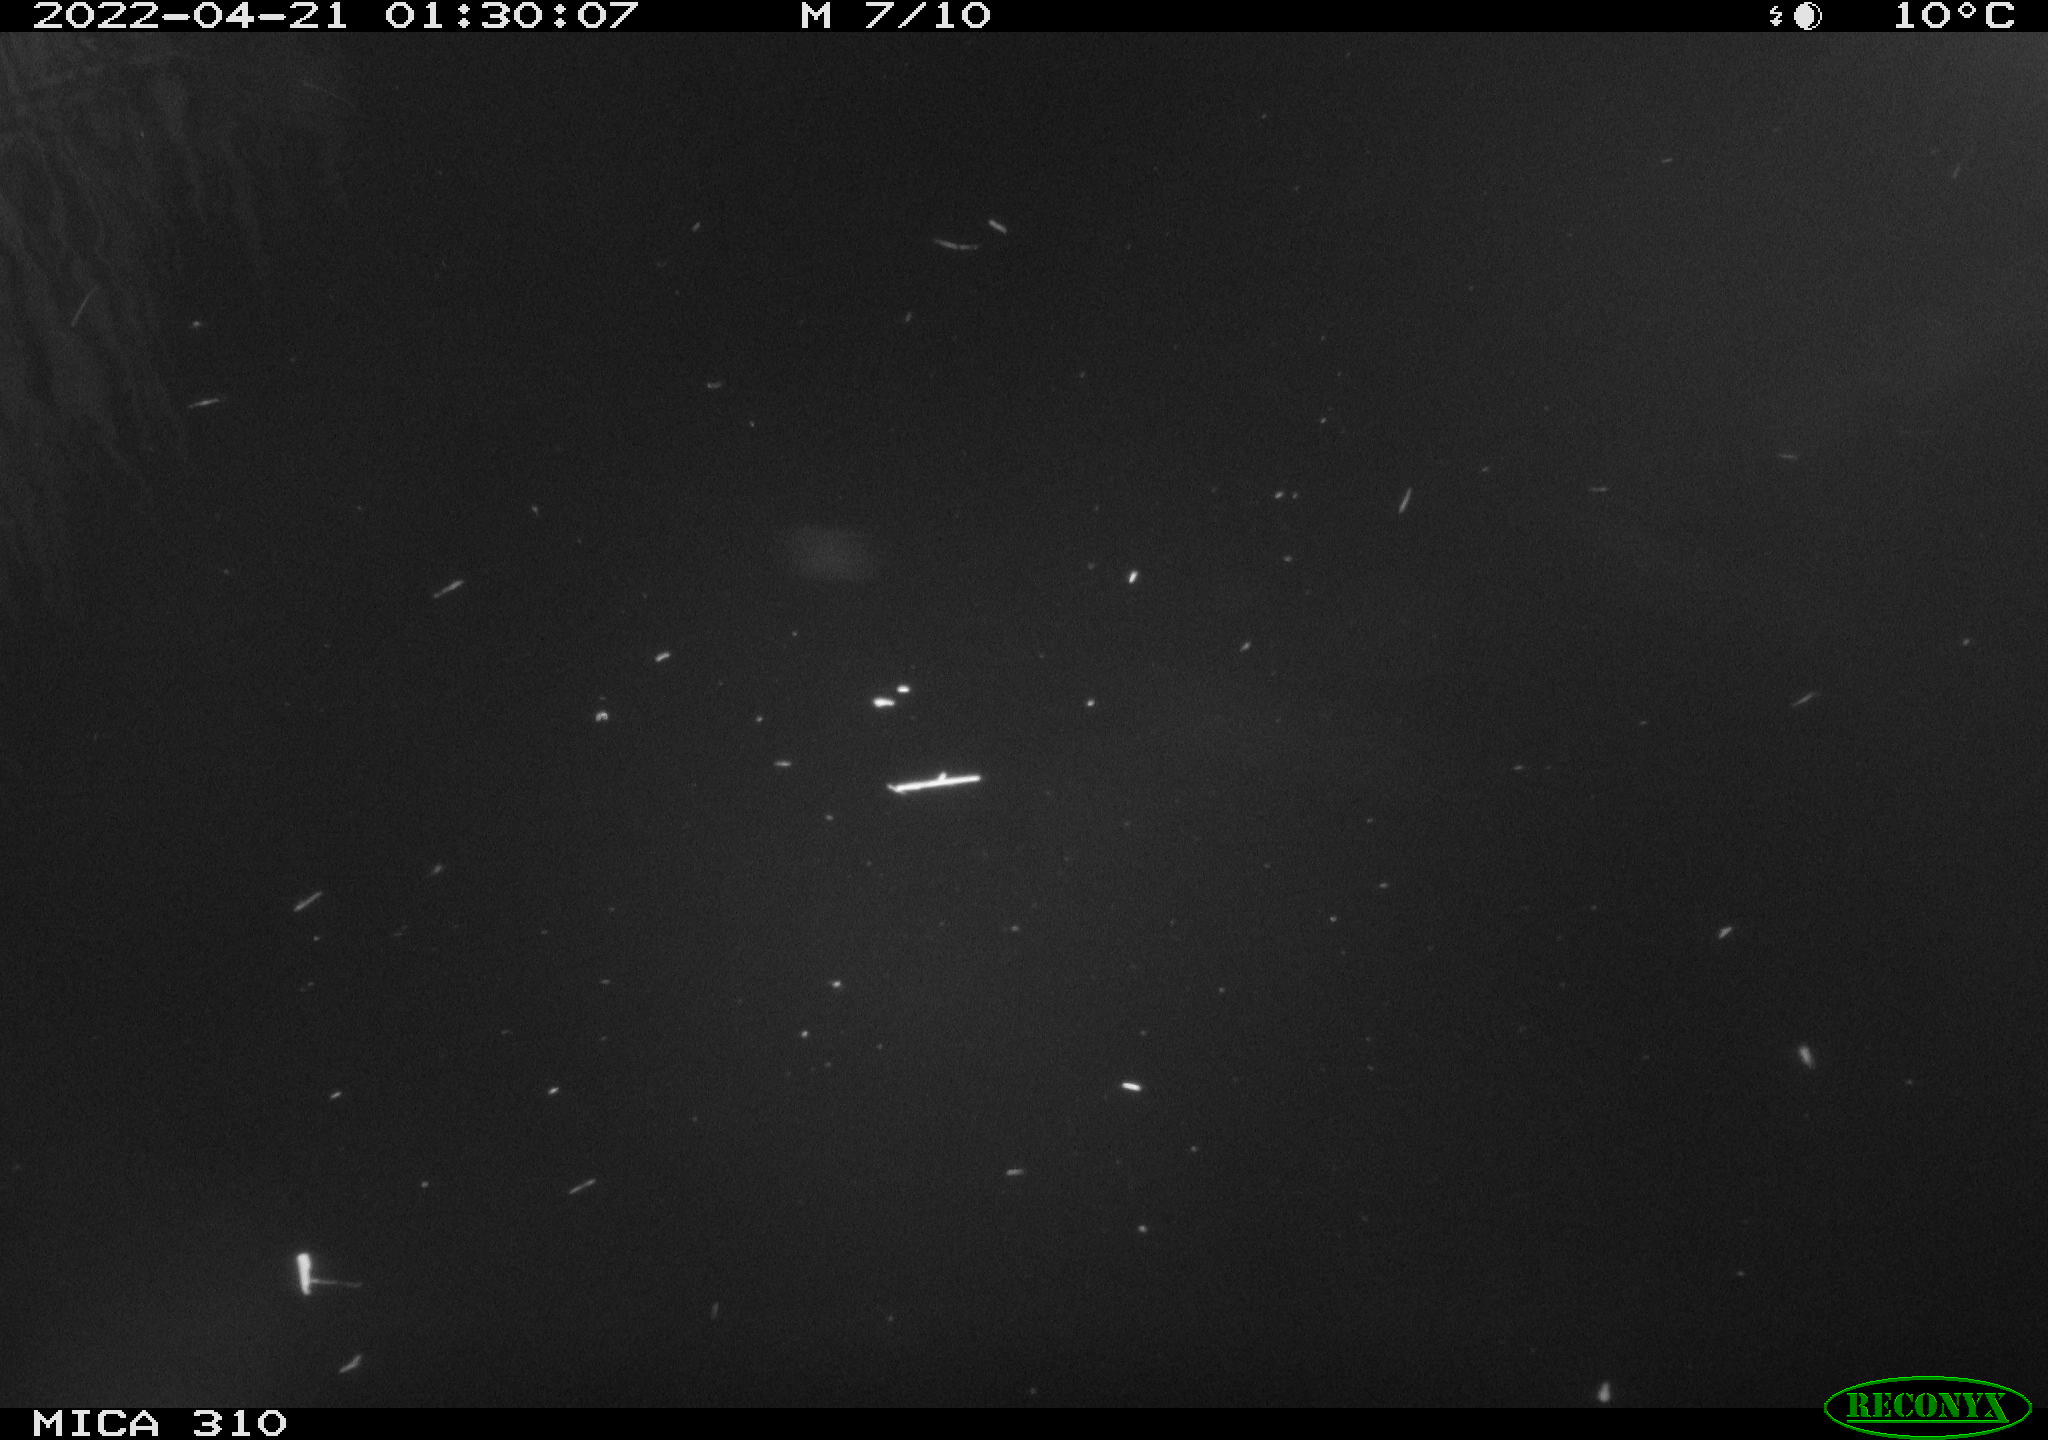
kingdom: Animalia
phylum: Chordata
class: Mammalia
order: Rodentia
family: Muridae
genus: Rattus
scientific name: Rattus norvegicus
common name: Brown rat
